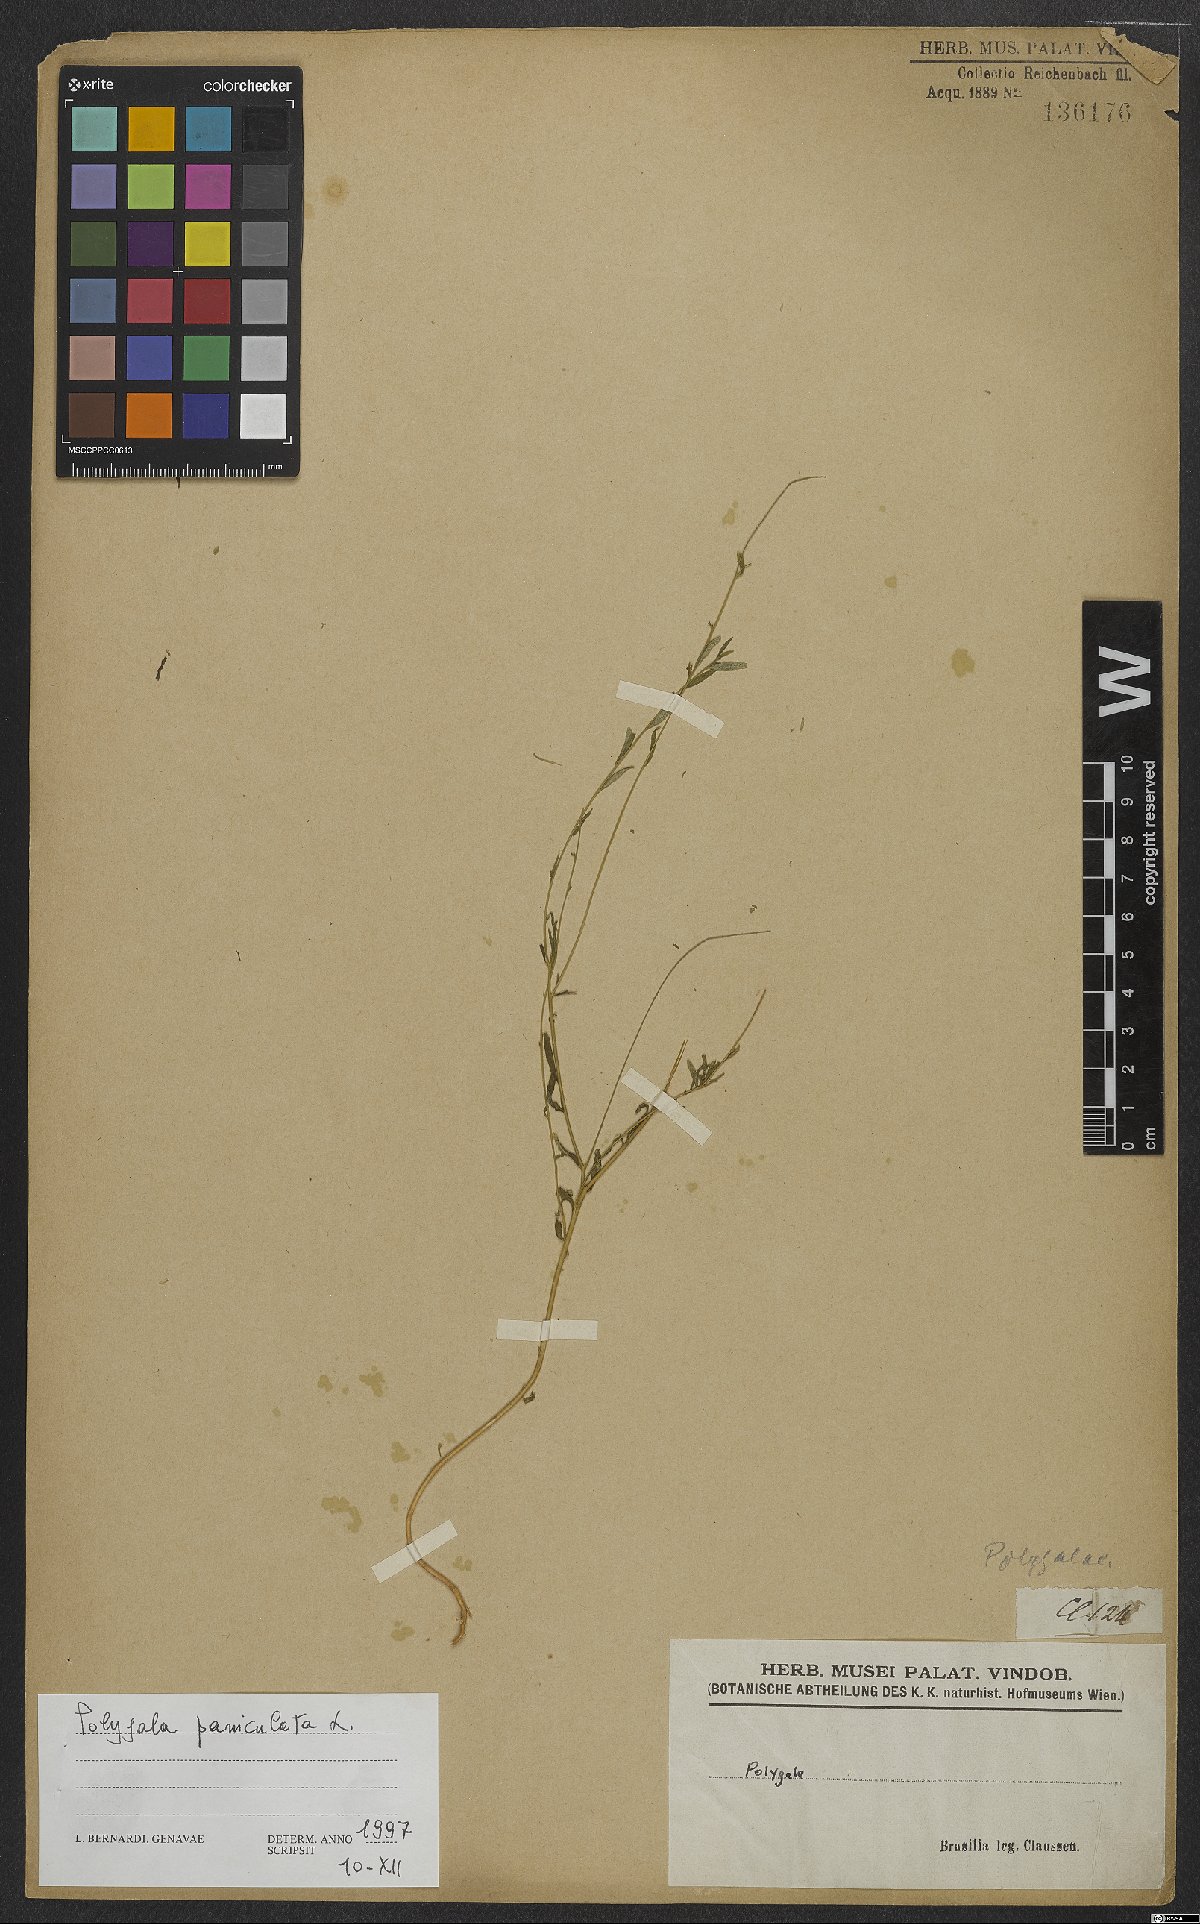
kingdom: Plantae
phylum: Tracheophyta
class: Magnoliopsida
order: Fabales
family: Polygalaceae
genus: Polygala
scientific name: Polygala exilis
